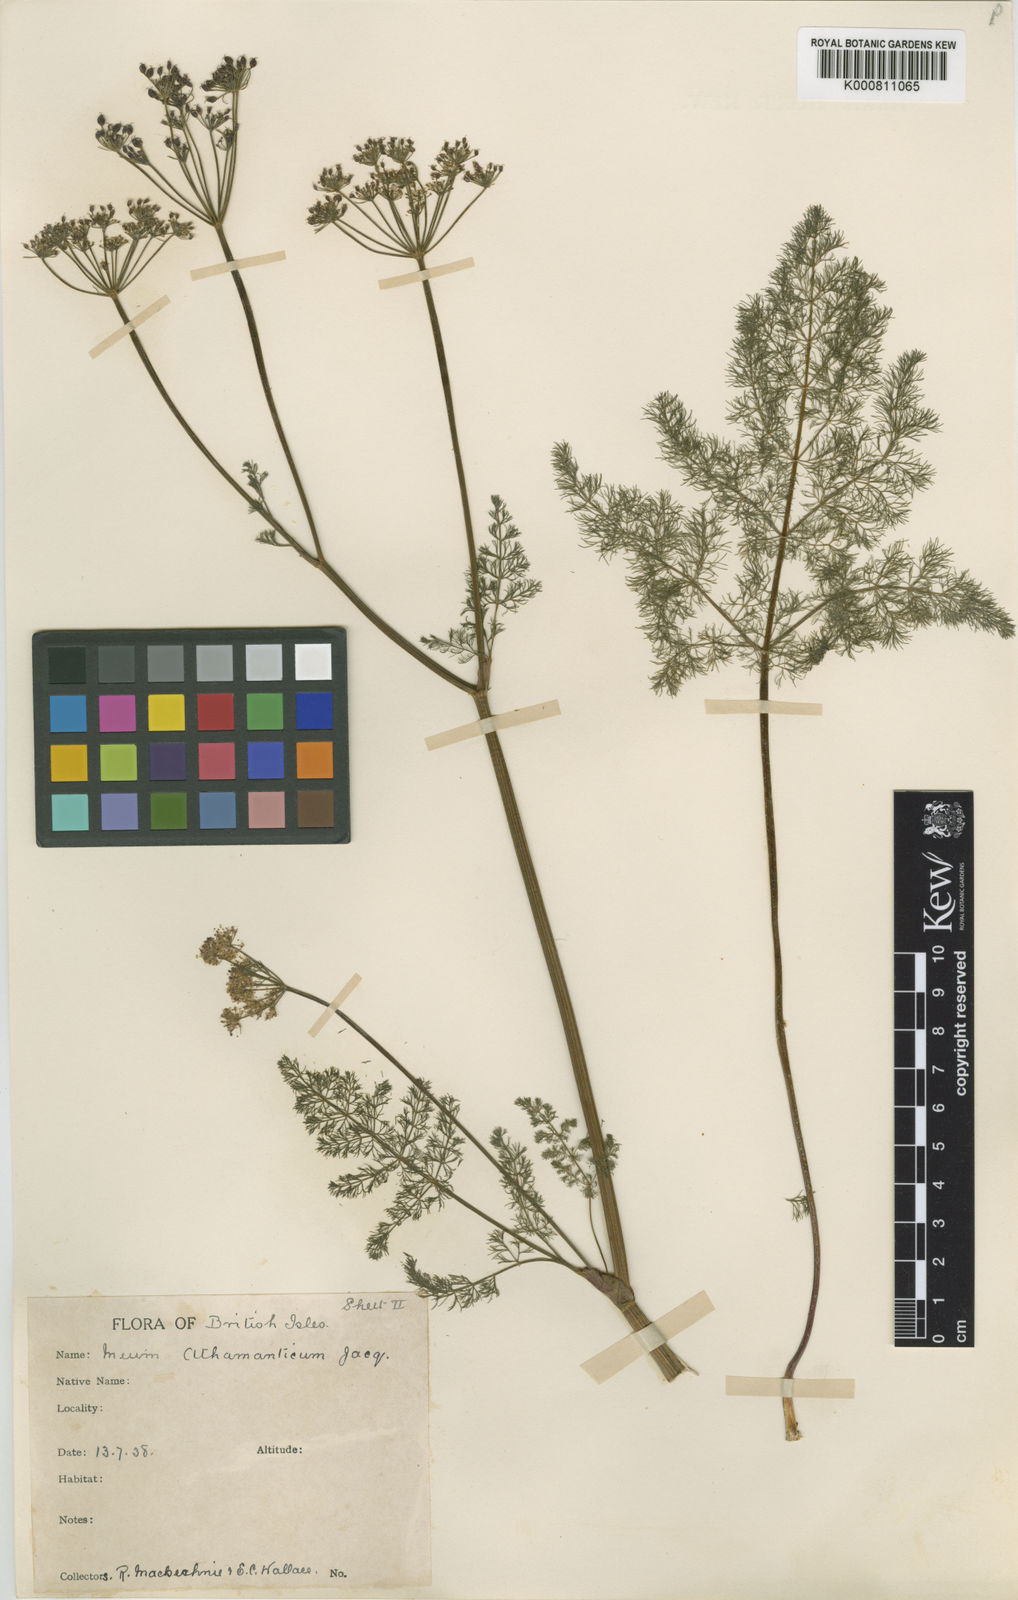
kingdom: Plantae
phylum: Tracheophyta
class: Magnoliopsida
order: Apiales
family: Apiaceae
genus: Meum
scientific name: Meum athamanticum
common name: Spignel
